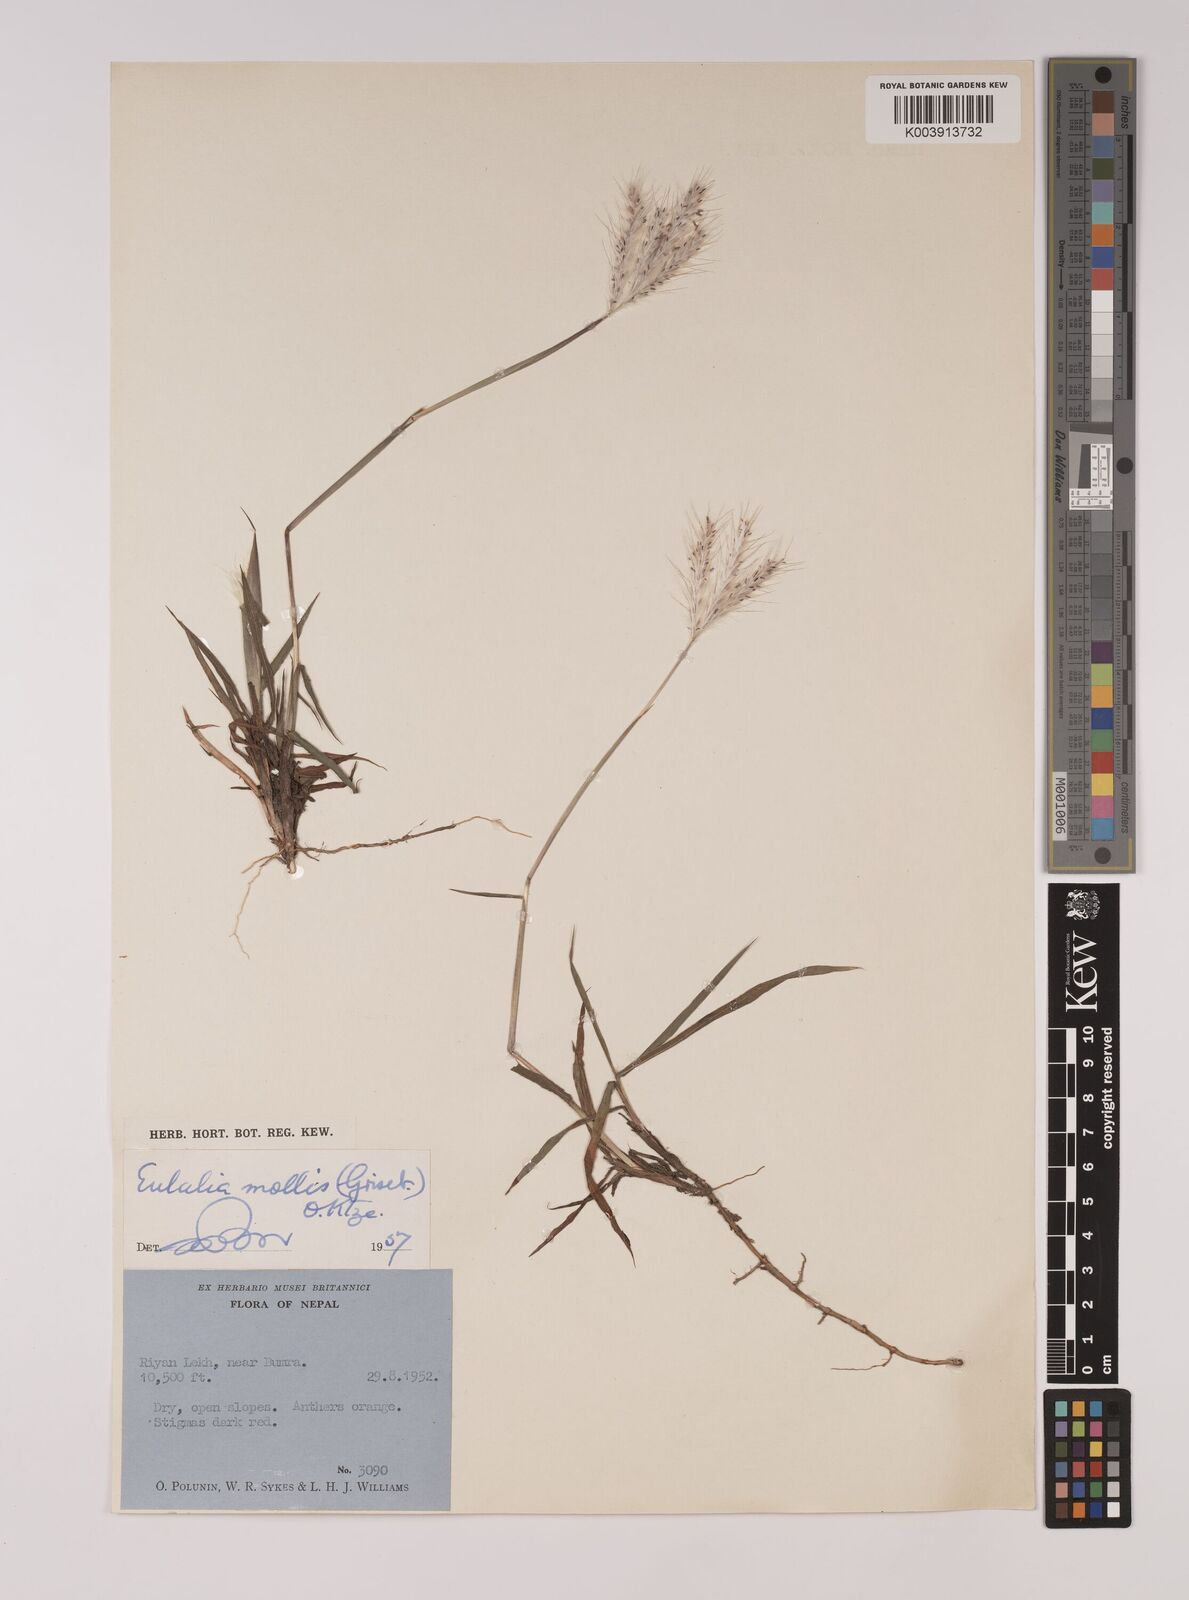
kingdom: Plantae
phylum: Tracheophyta
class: Liliopsida
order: Poales
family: Poaceae
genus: Eulalia
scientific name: Eulalia mollis
